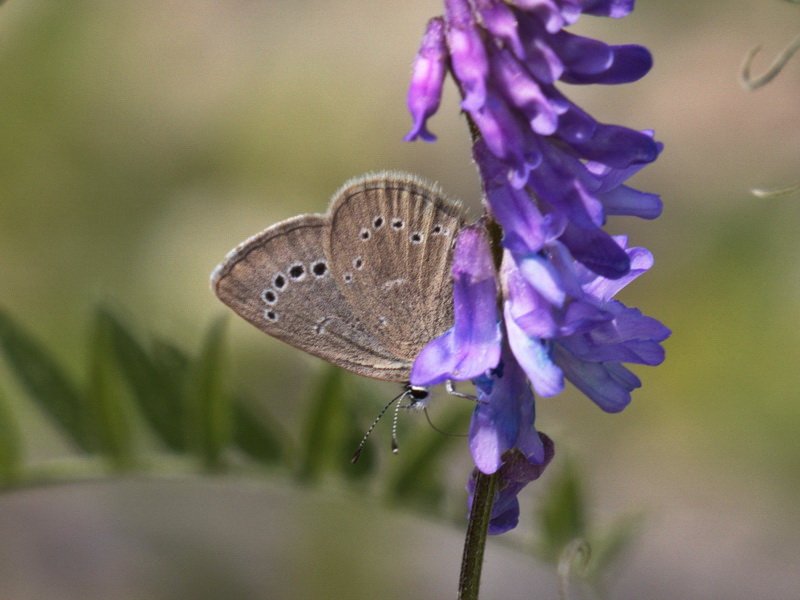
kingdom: Animalia
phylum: Arthropoda
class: Insecta
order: Lepidoptera
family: Lycaenidae
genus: Glaucopsyche
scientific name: Glaucopsyche lygdamus
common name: Silvery Blue
